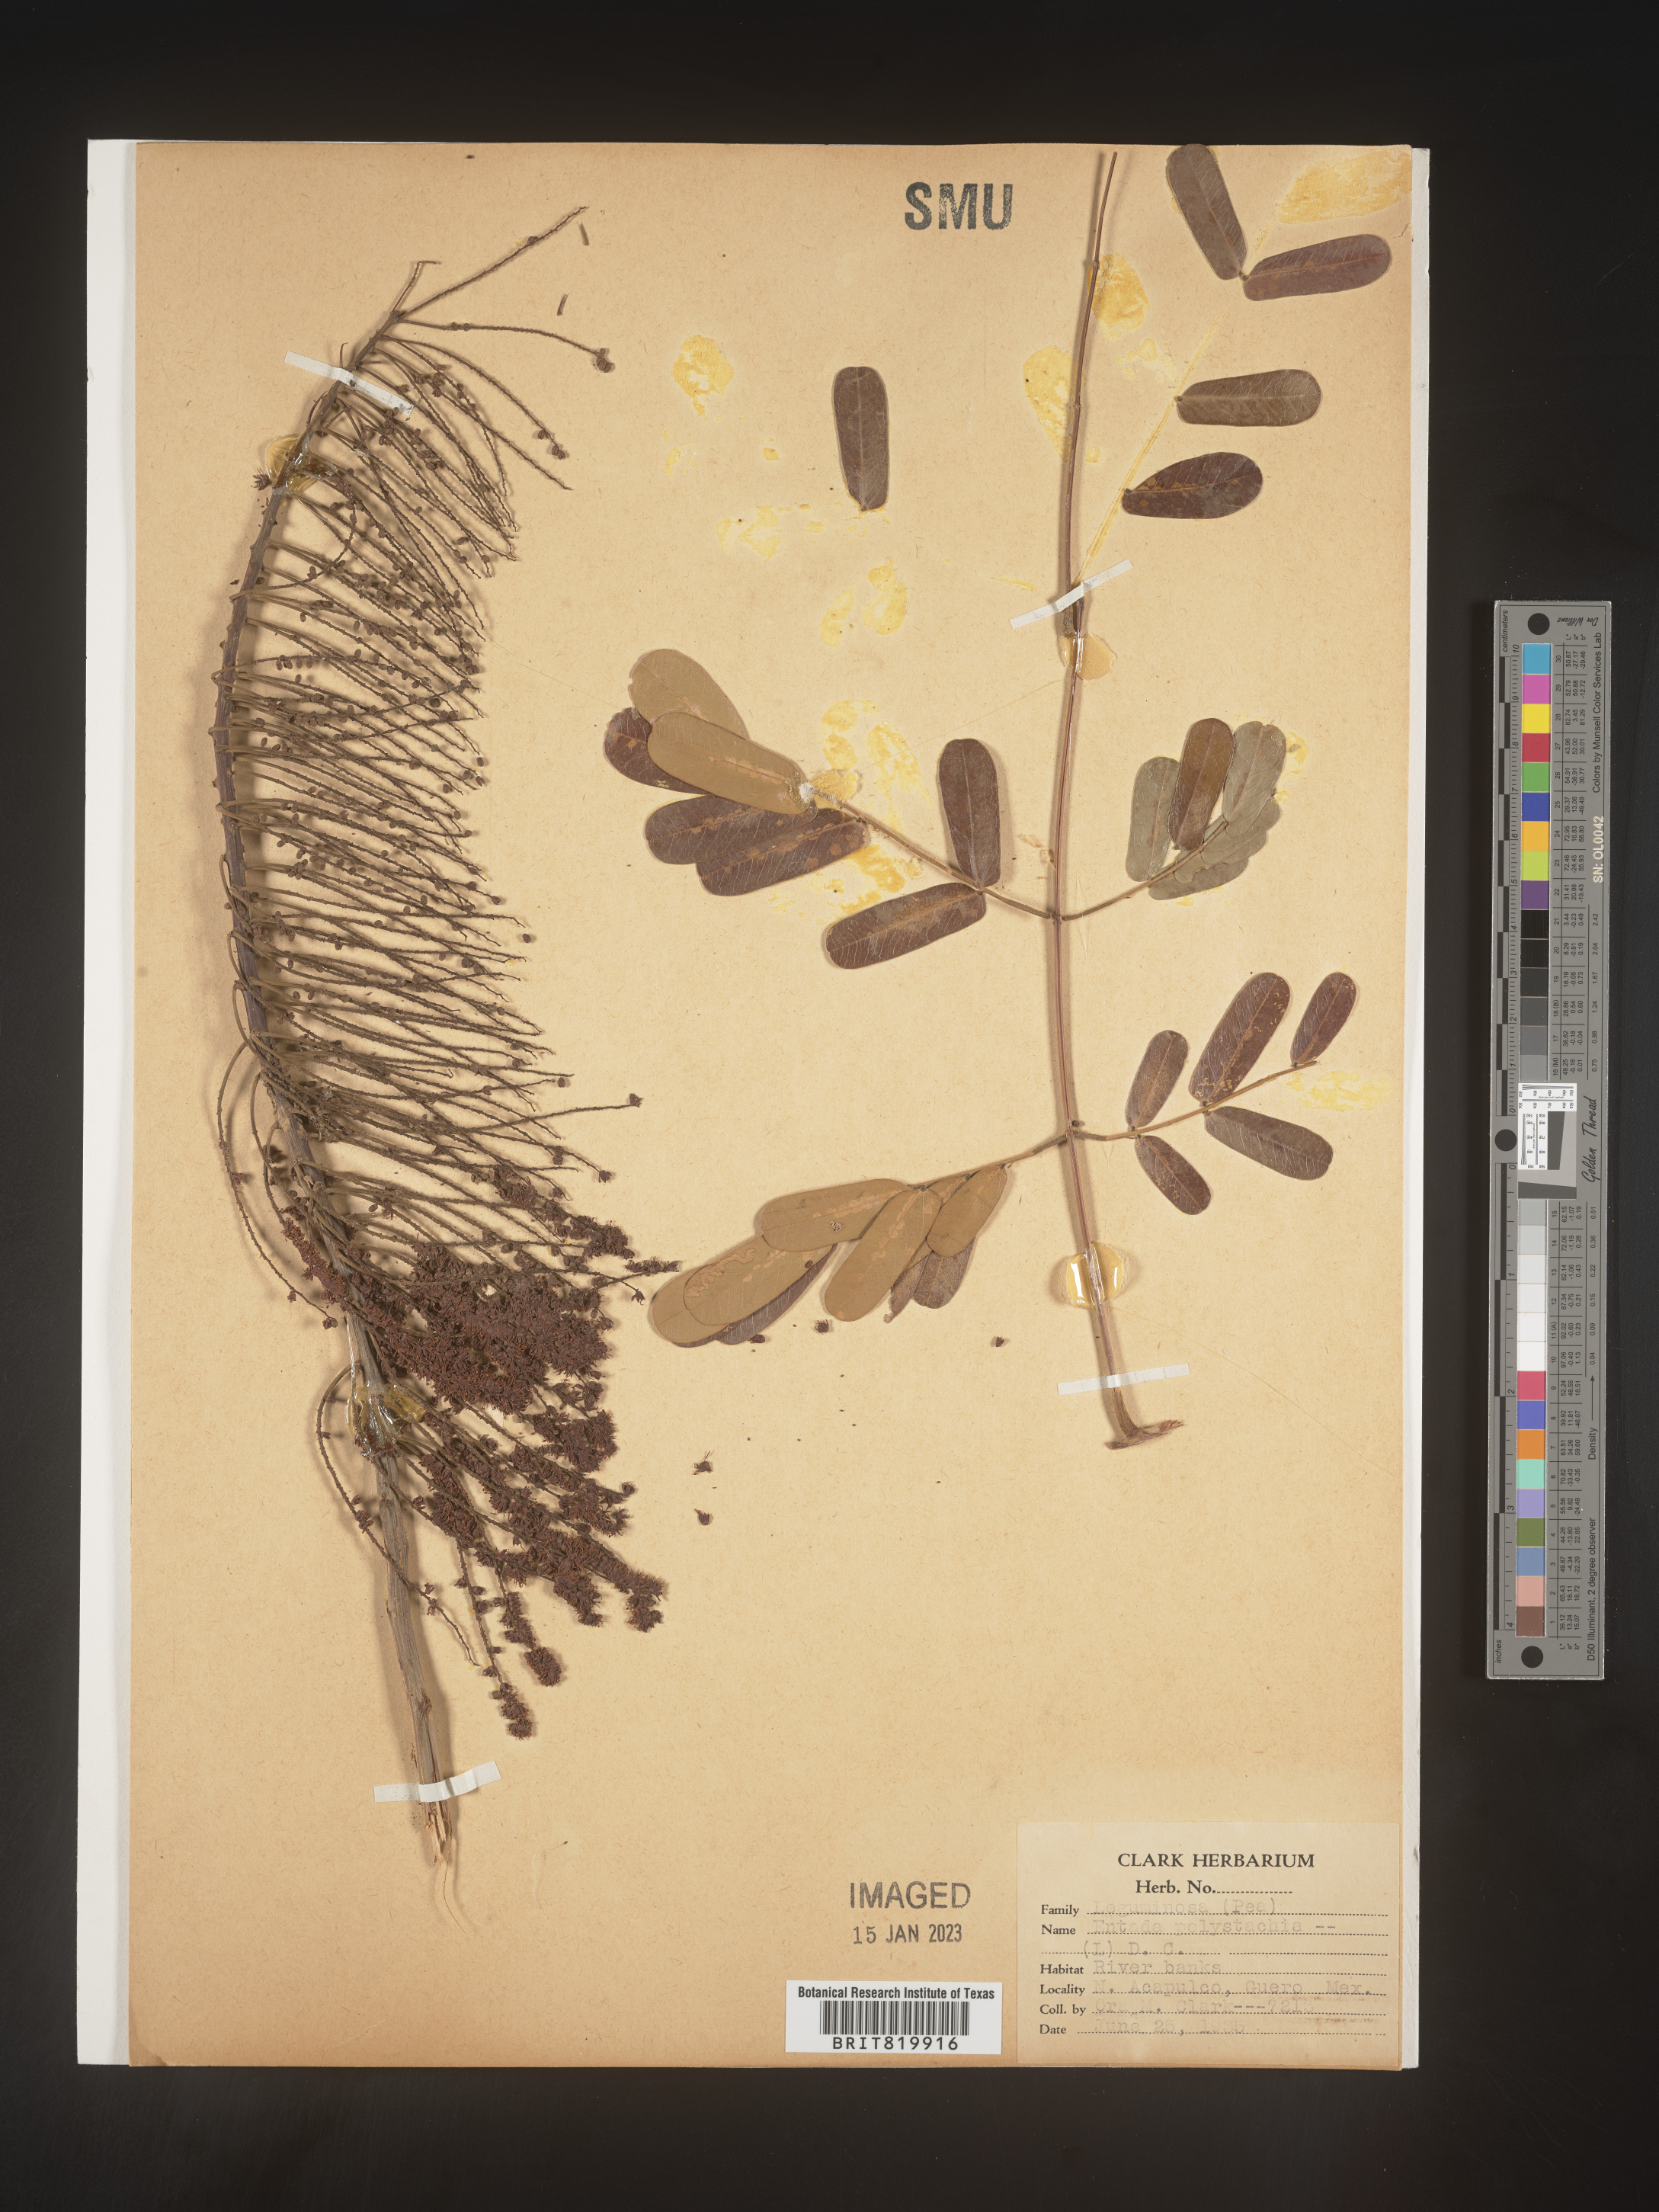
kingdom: Plantae
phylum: Tracheophyta
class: Magnoliopsida
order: Fabales
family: Fabaceae
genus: Entada
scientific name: Entada
